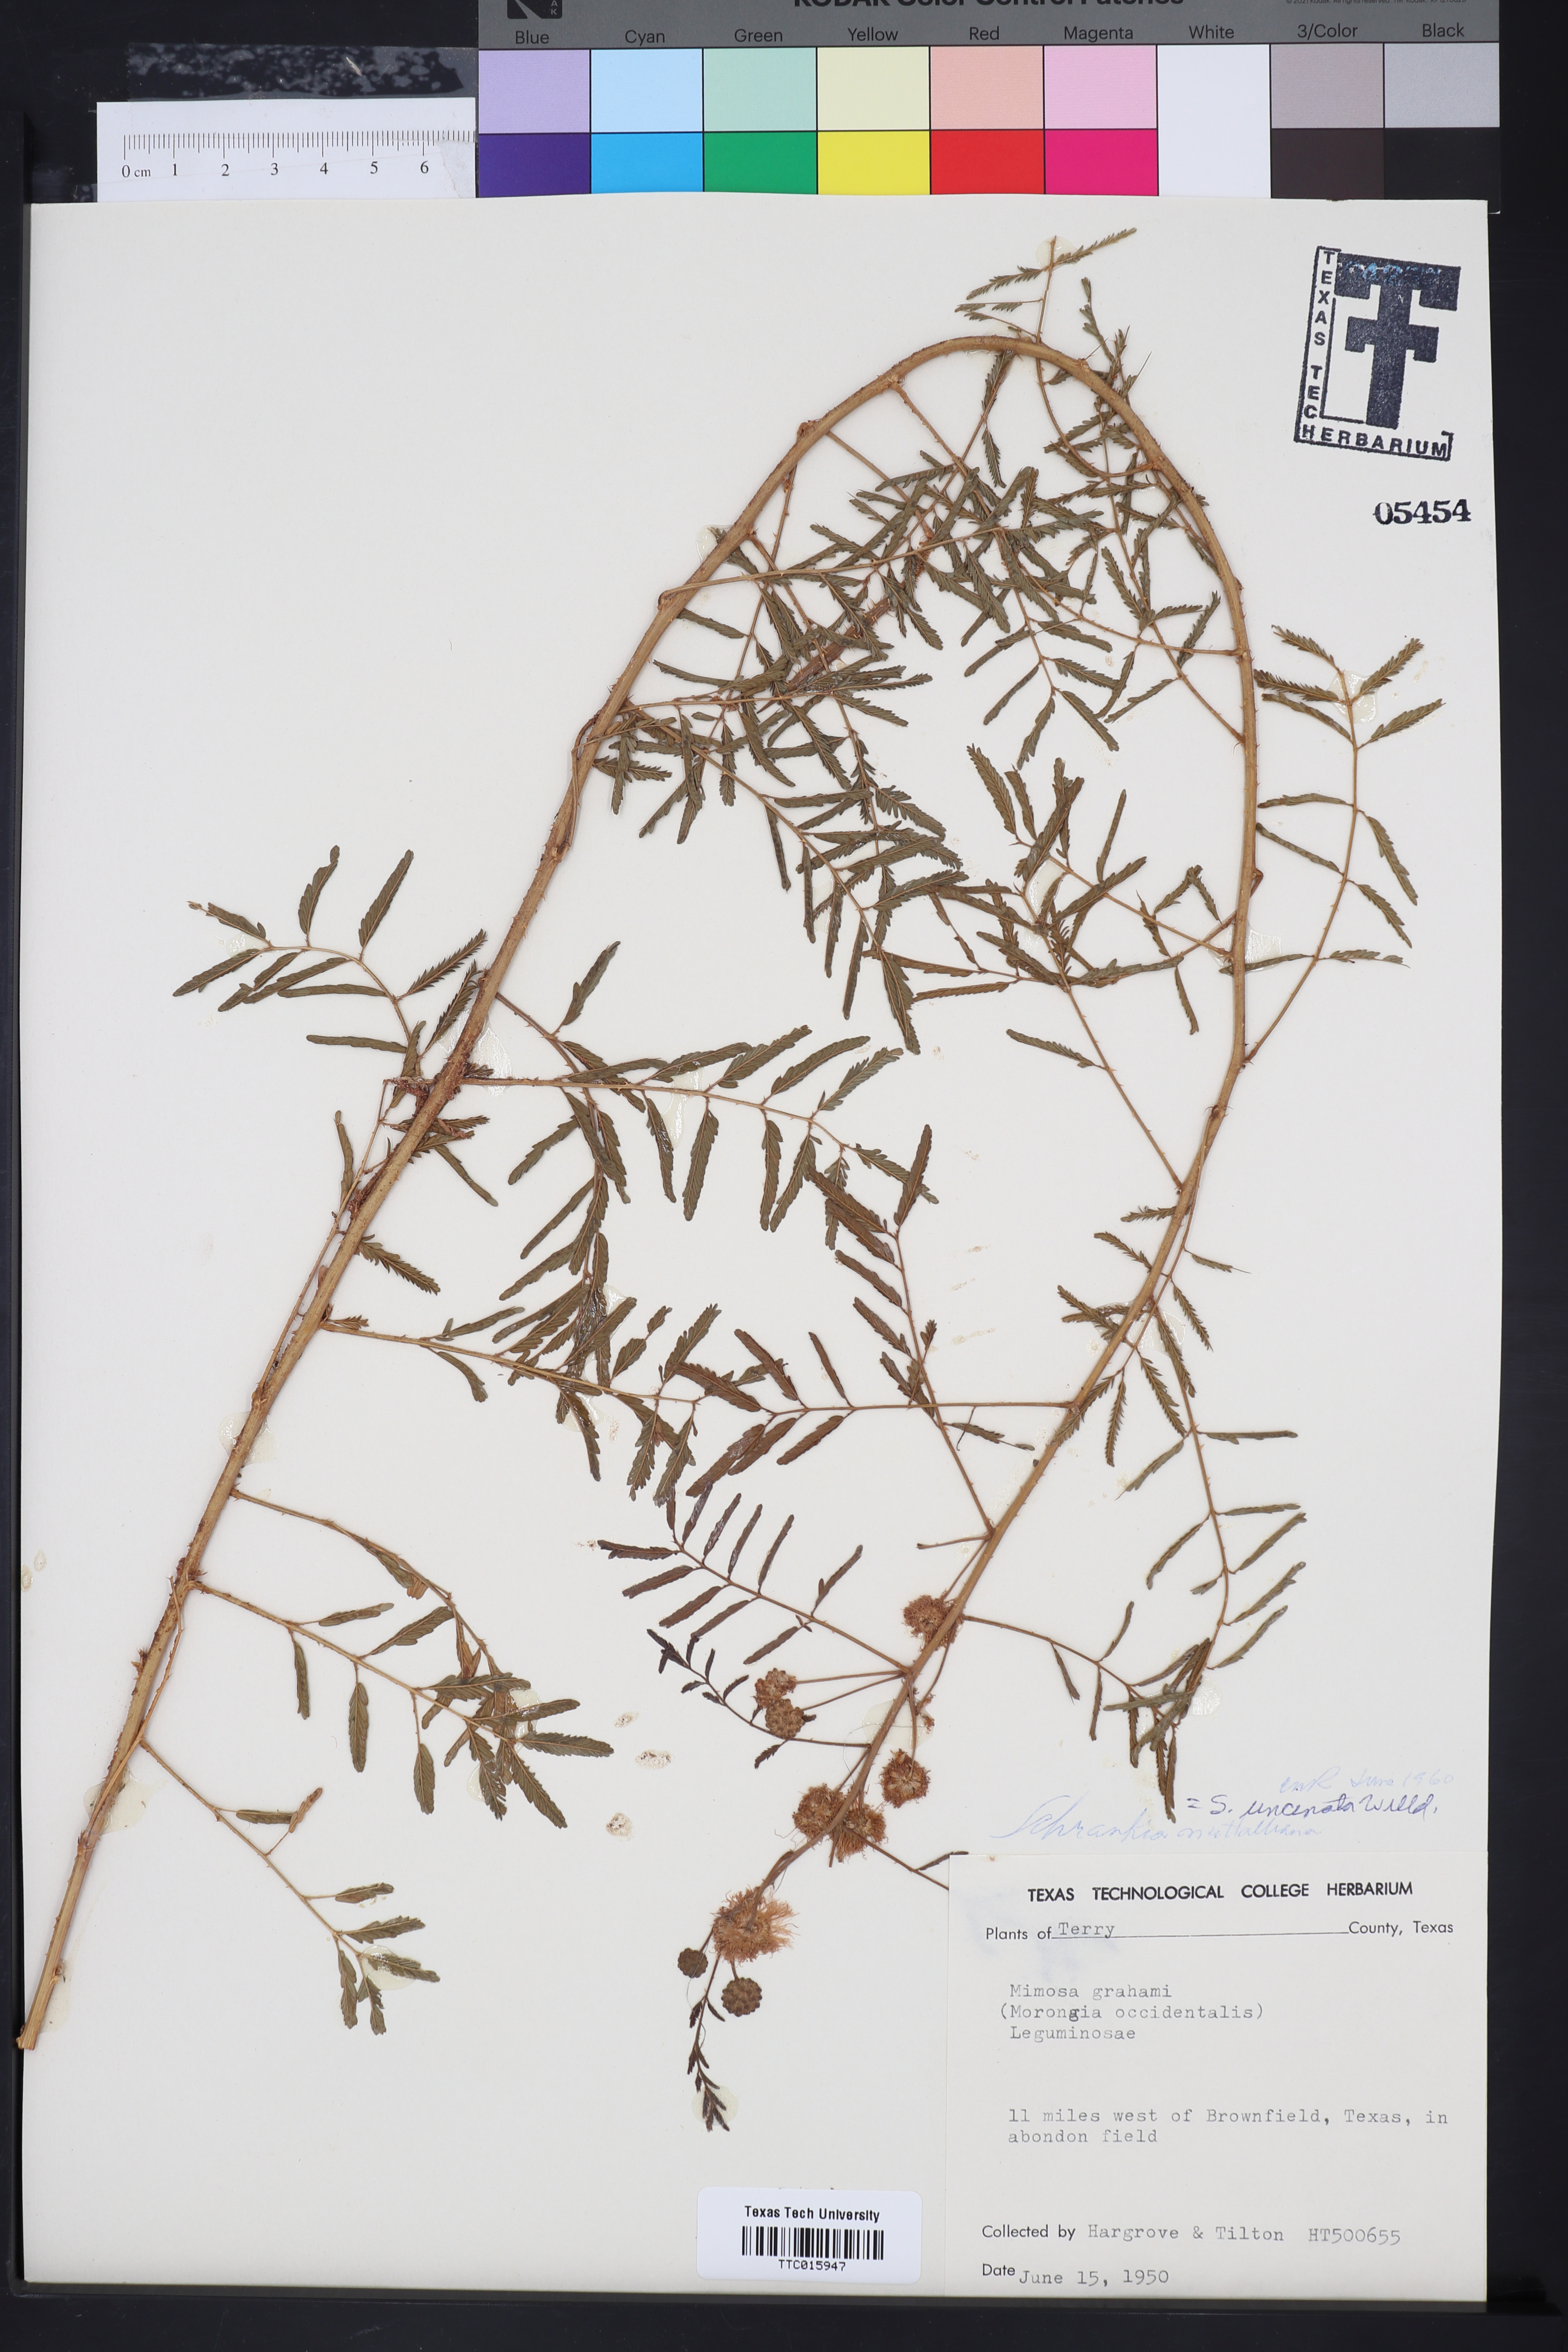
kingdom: Plantae
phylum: Tracheophyta
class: Magnoliopsida
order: Fabales
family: Fabaceae
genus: Mimosa
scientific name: Mimosa quadrivalvis
